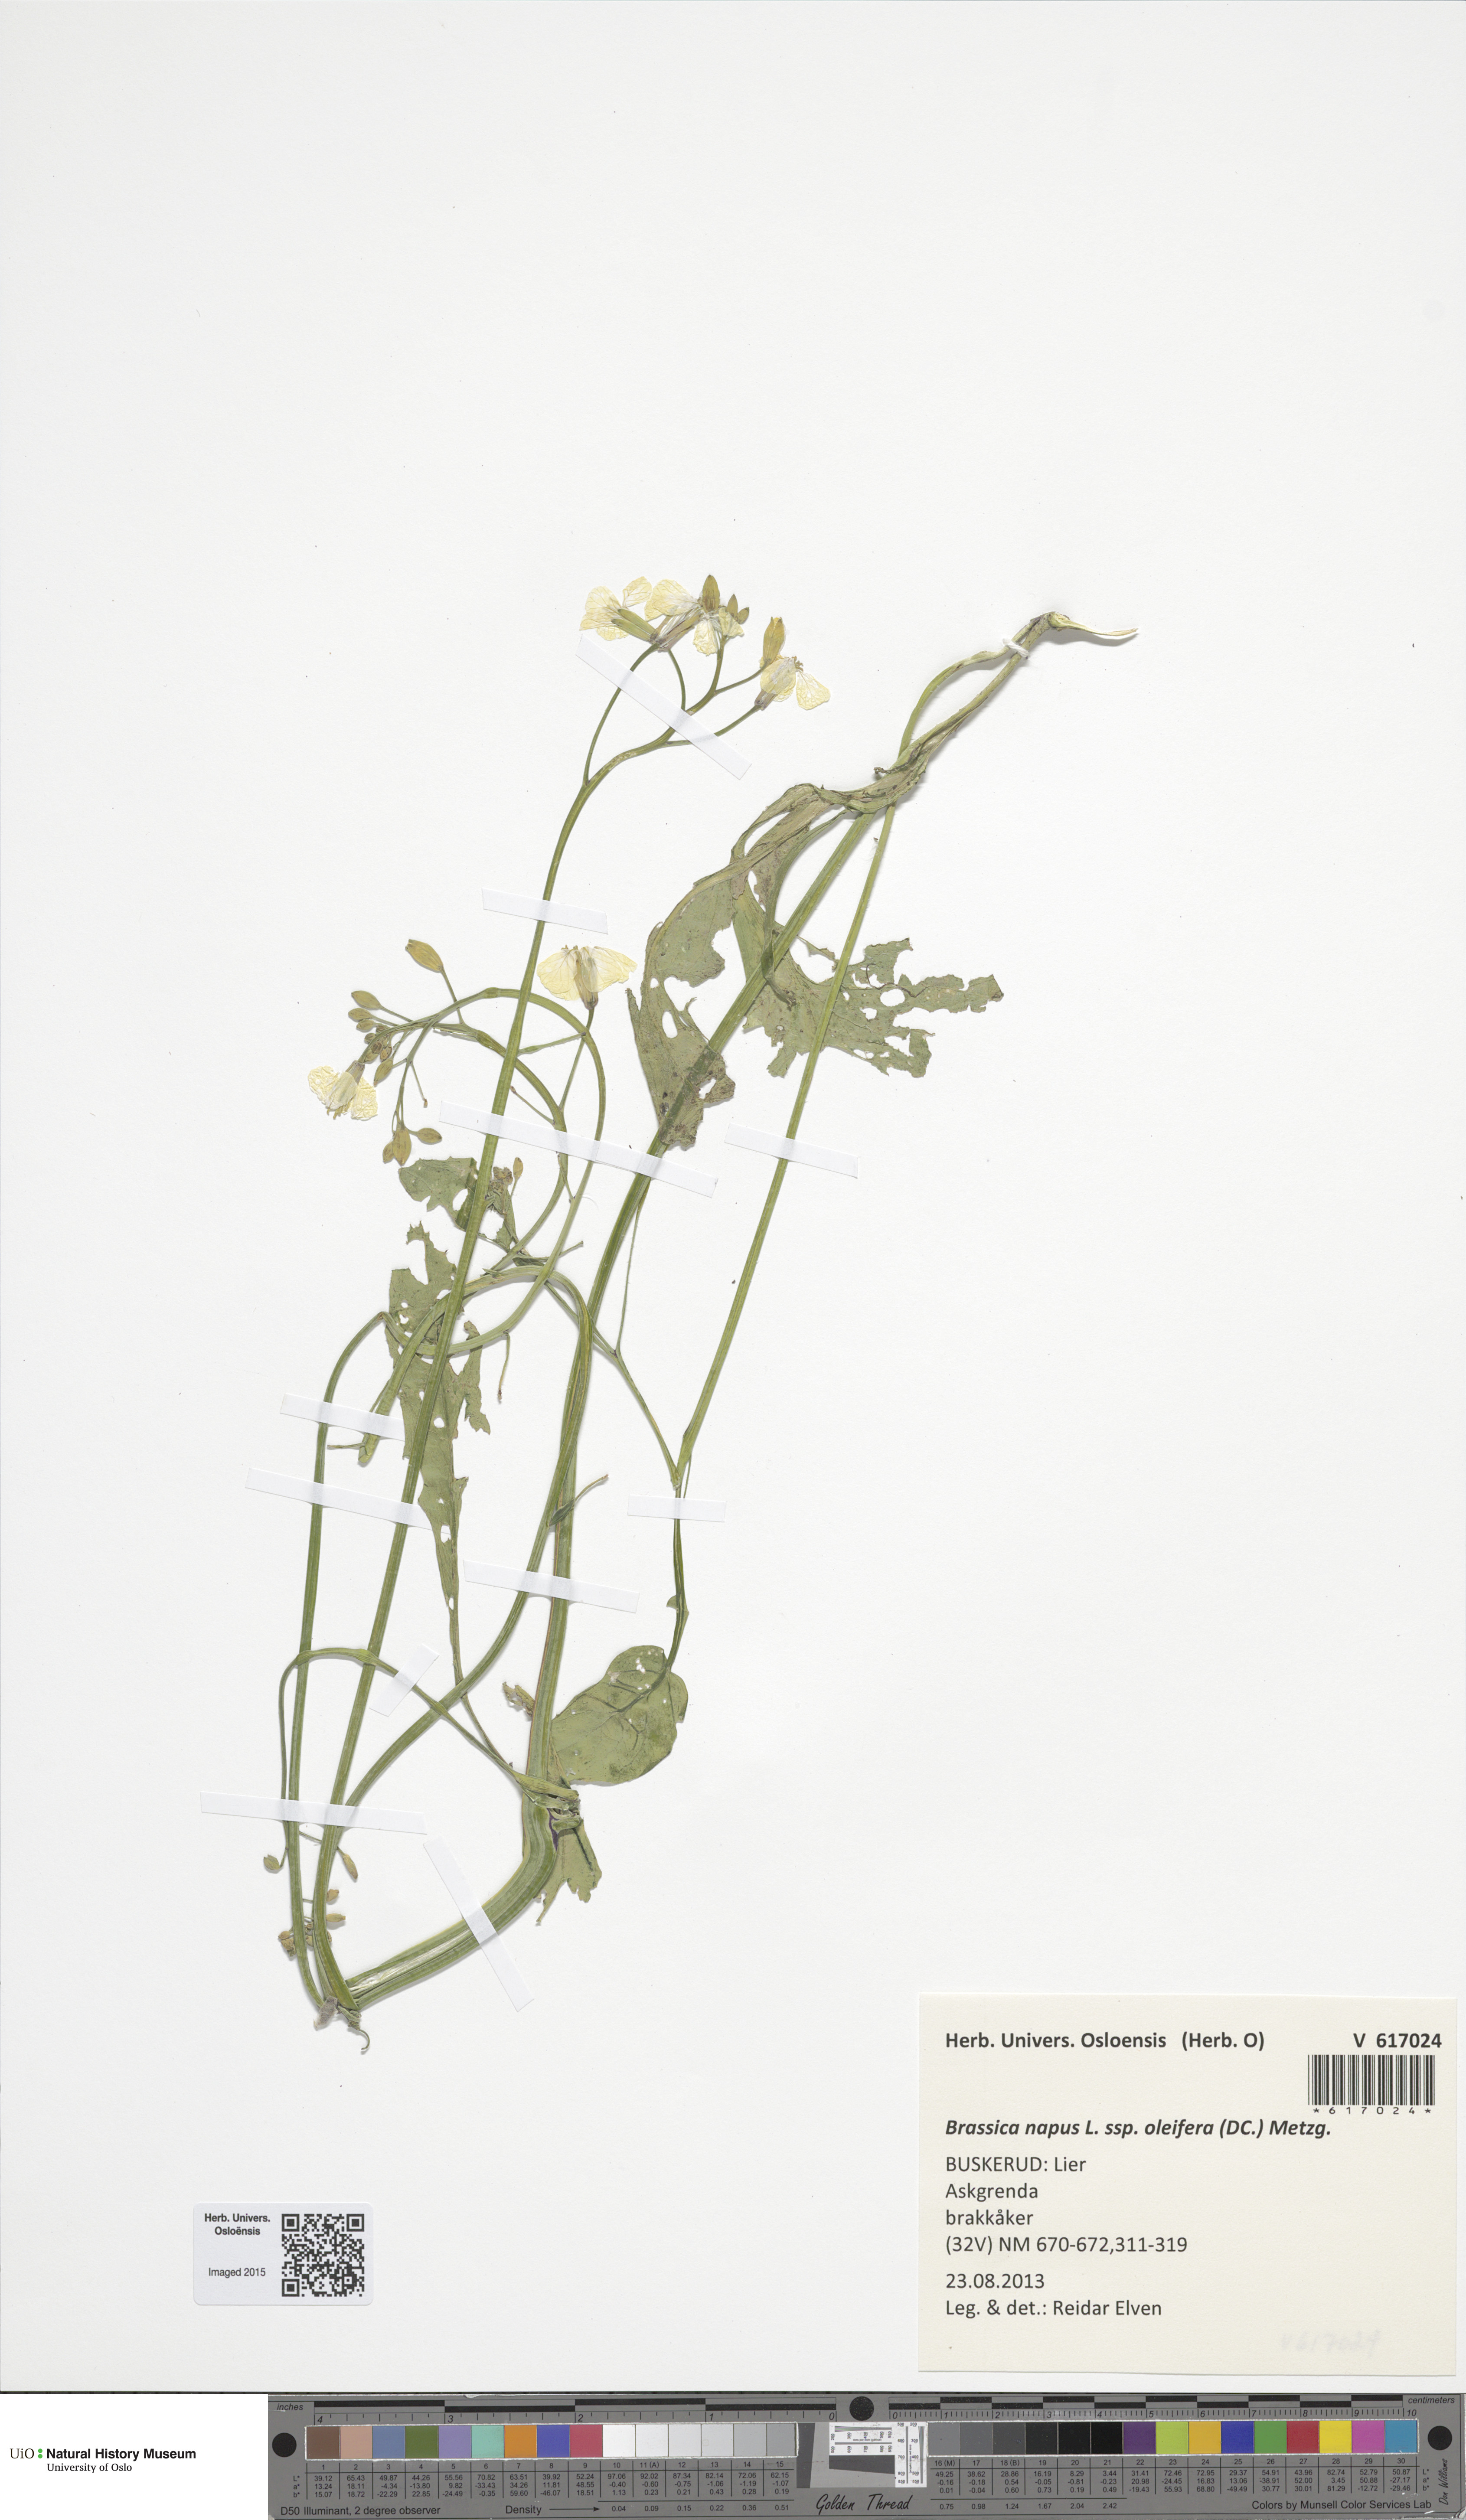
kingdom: Plantae
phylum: Tracheophyta
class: Magnoliopsida
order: Brassicales
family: Brassicaceae
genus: Brassica
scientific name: Brassica napus
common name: Rape
